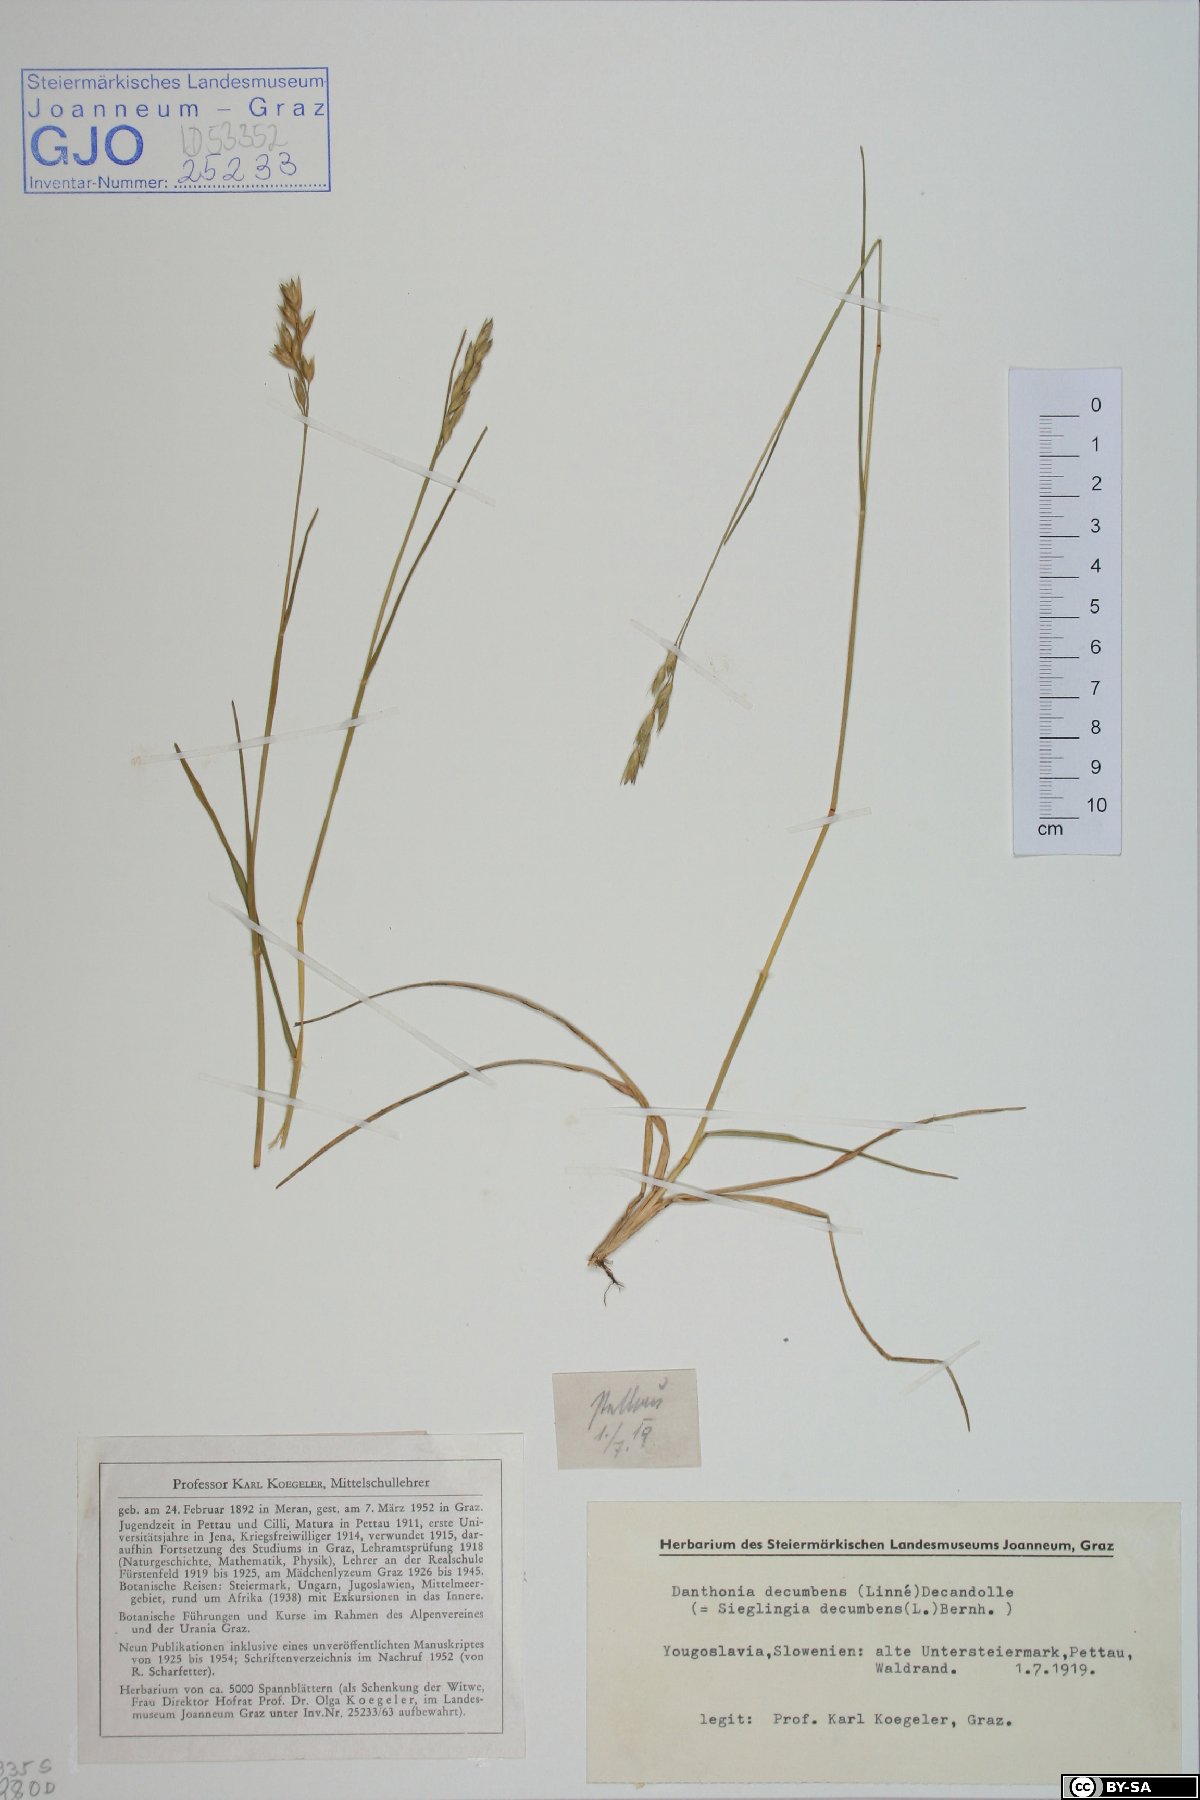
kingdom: Plantae
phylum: Tracheophyta
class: Liliopsida
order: Poales
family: Poaceae
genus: Danthonia
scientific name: Danthonia decumbens
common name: Common heathgrass
